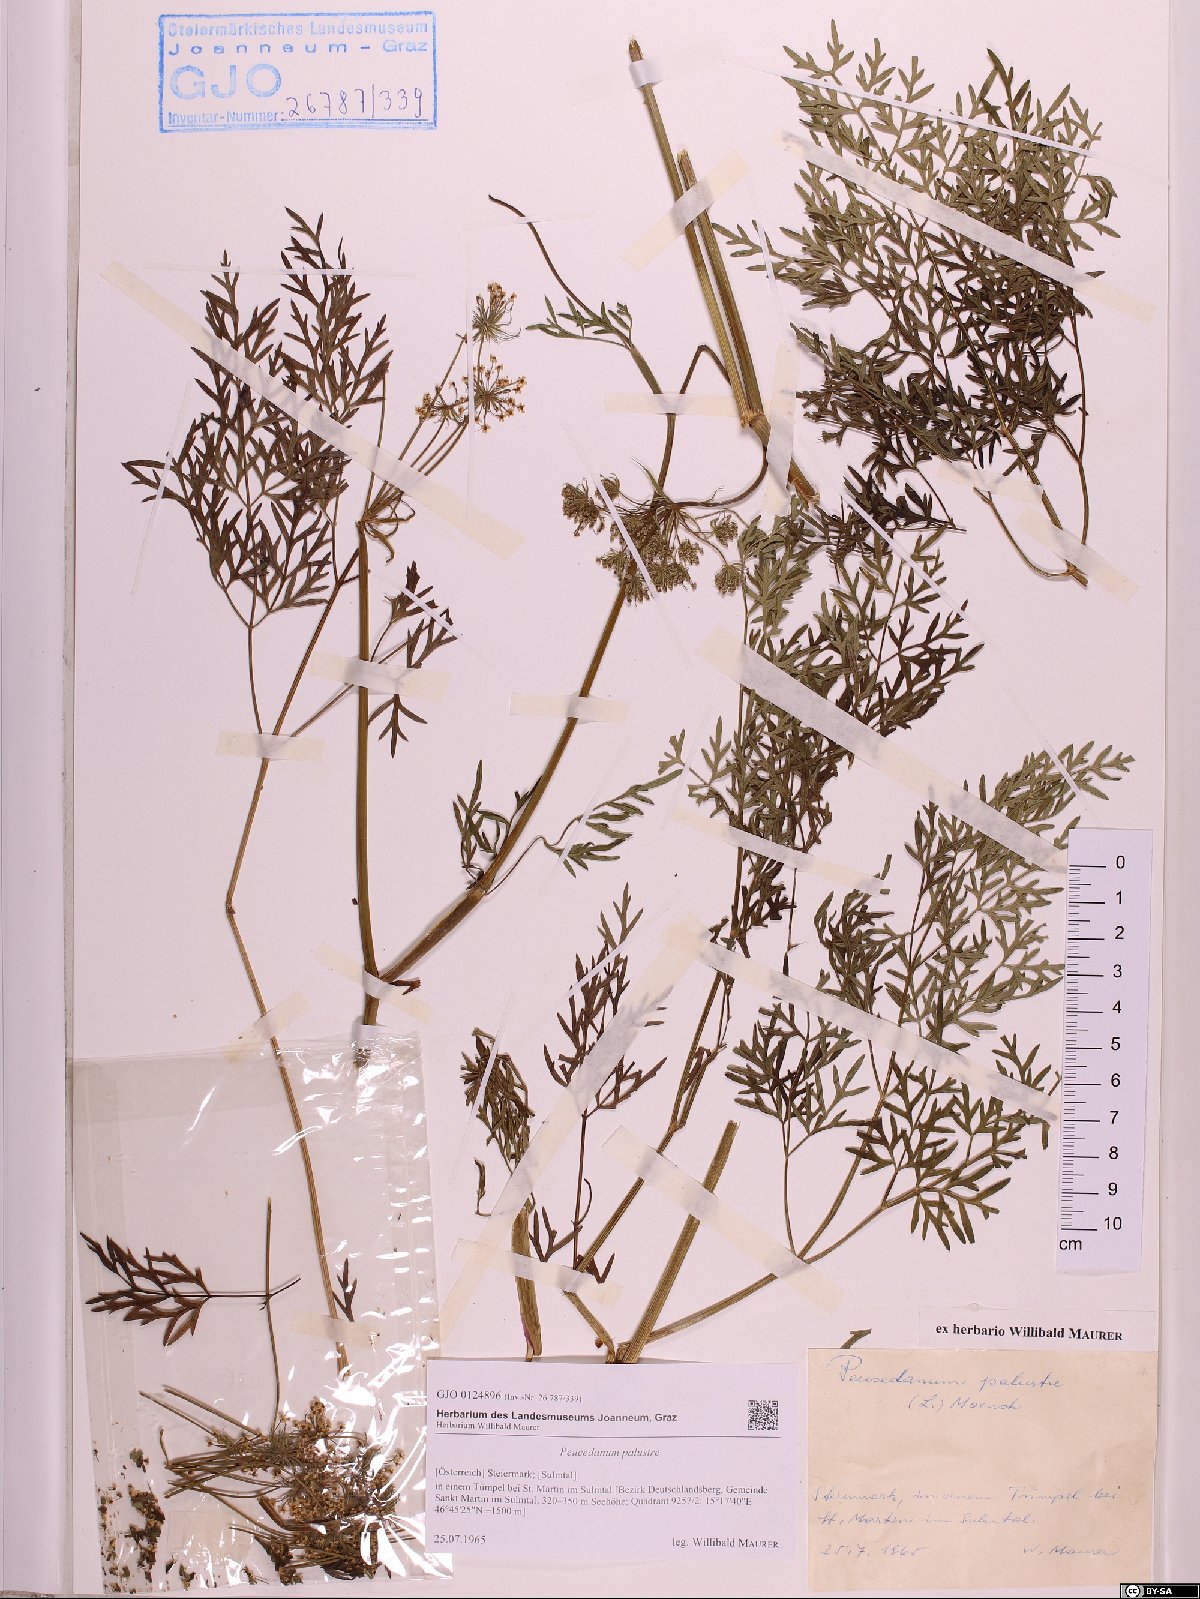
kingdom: Plantae
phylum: Tracheophyta
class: Magnoliopsida
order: Apiales
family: Apiaceae
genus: Thysselinum
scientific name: Thysselinum palustre
